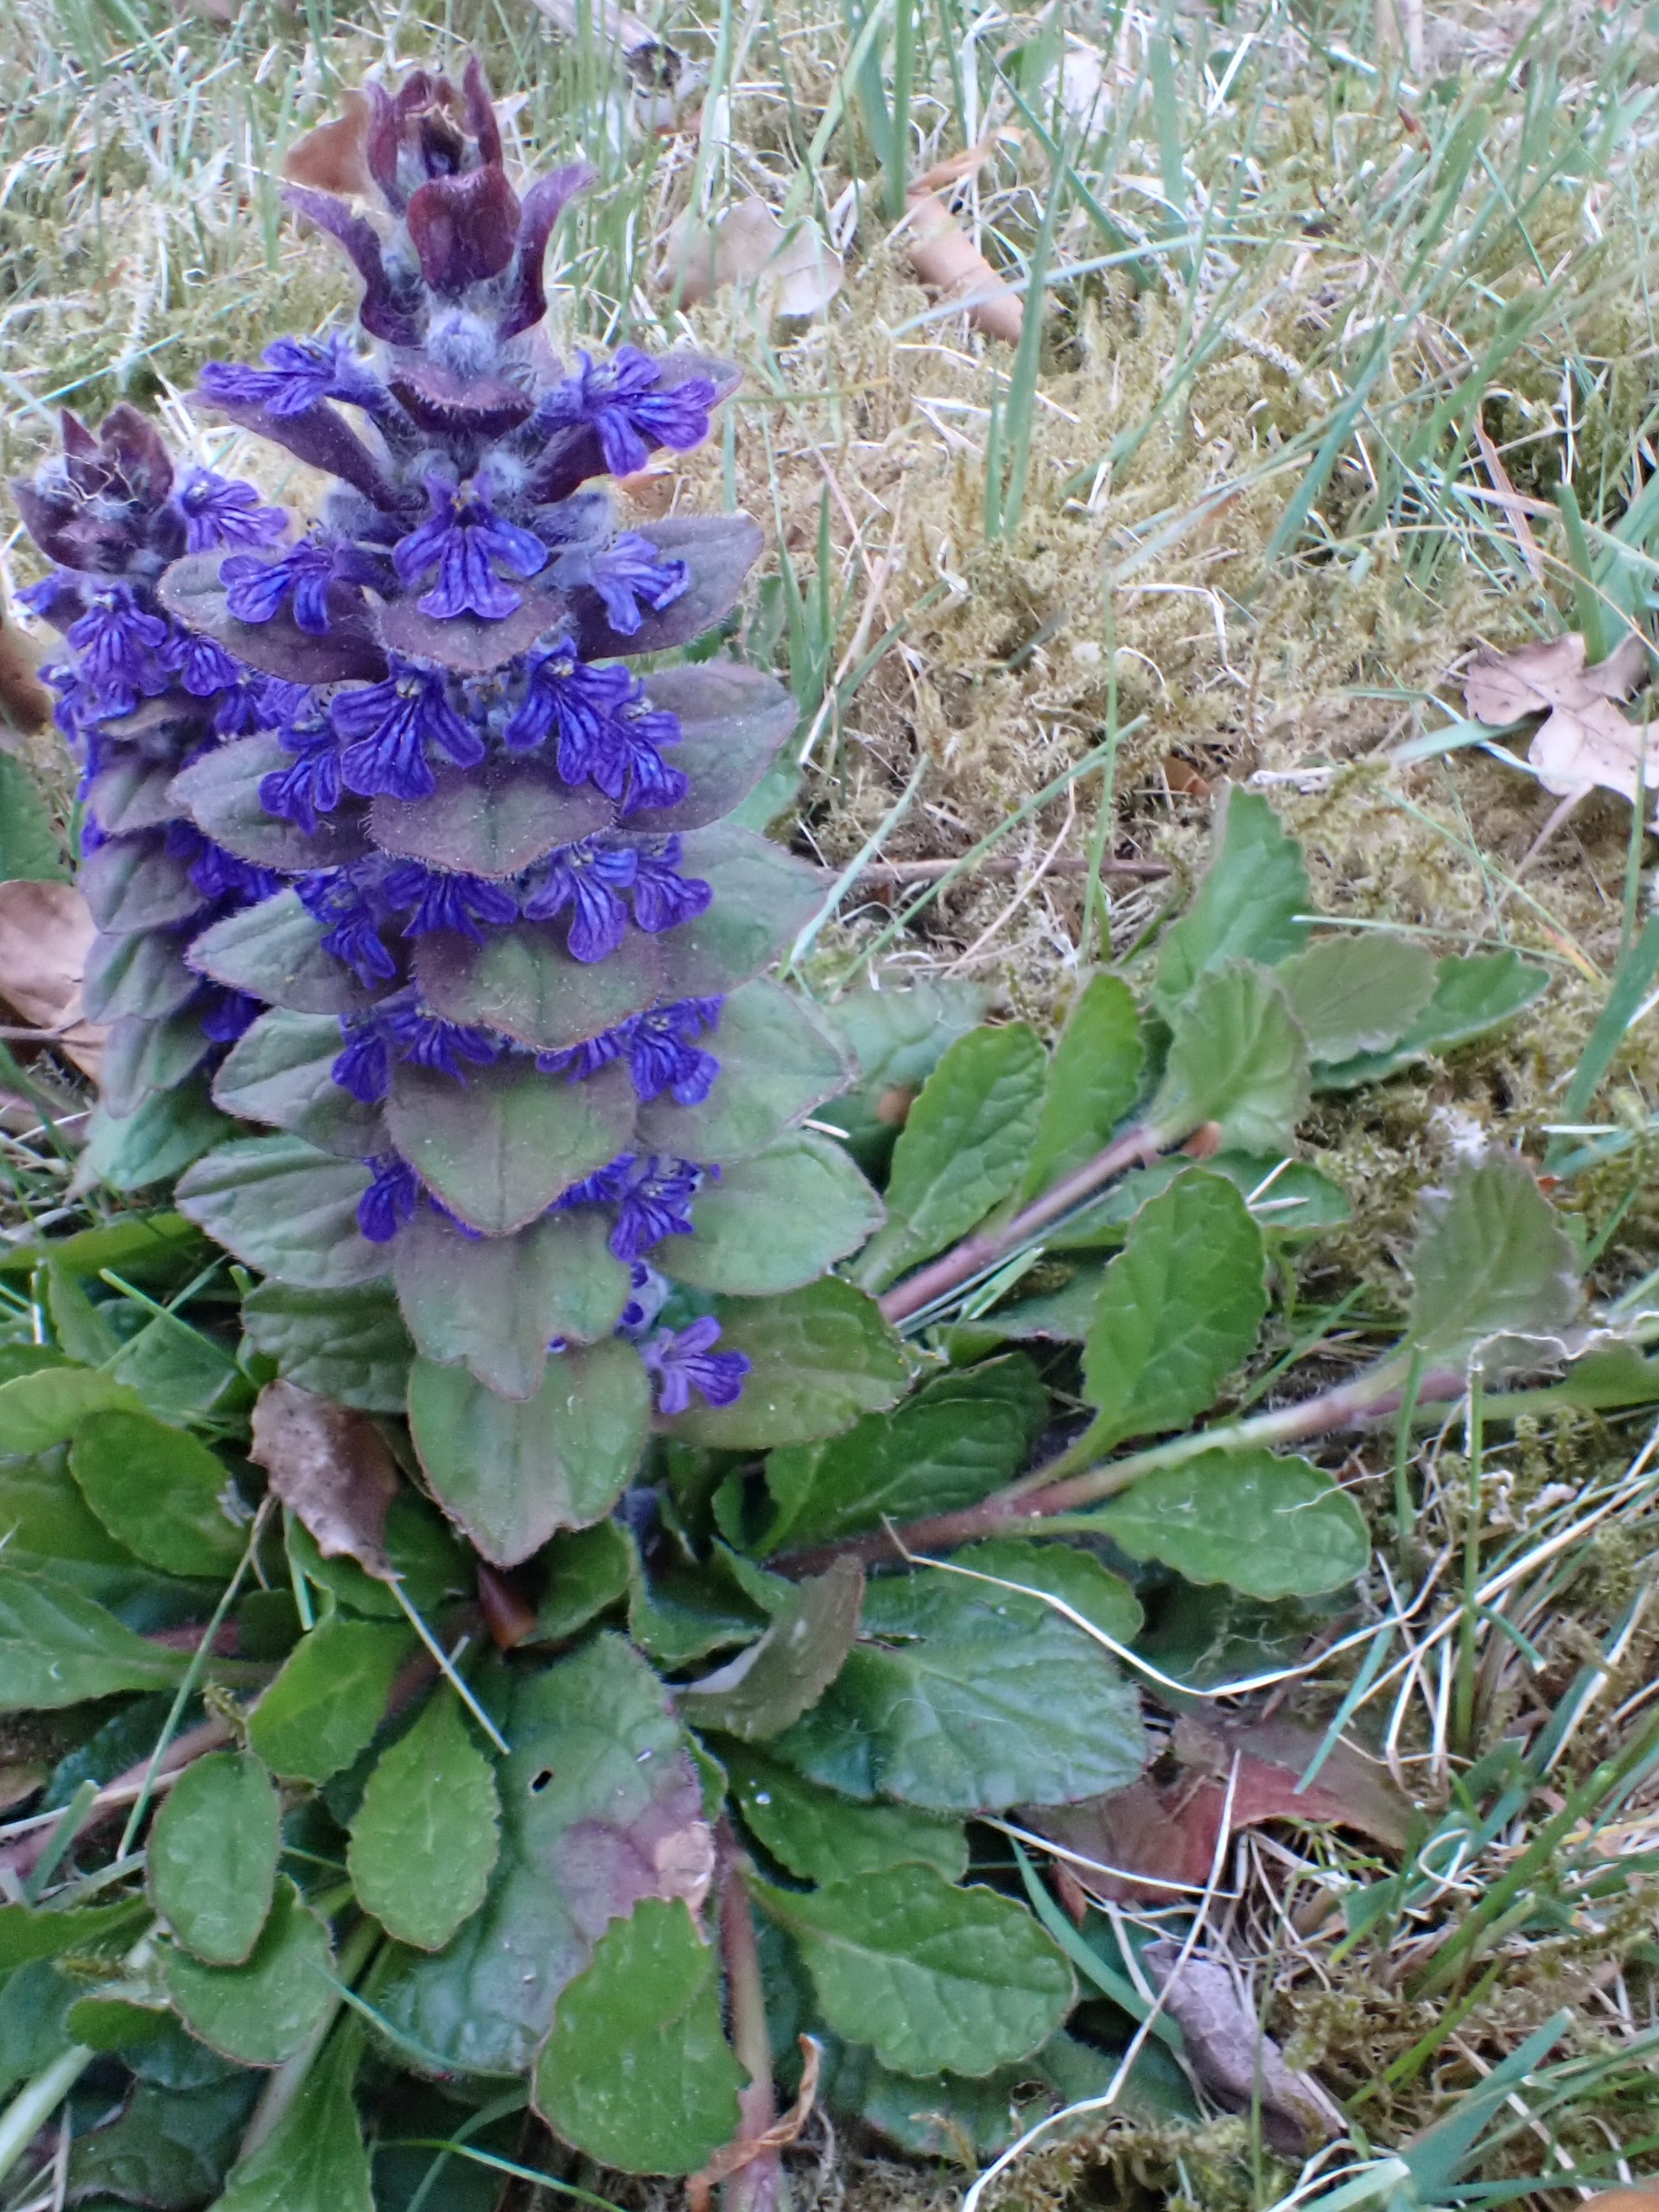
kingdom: Plantae
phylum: Tracheophyta
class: Magnoliopsida
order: Lamiales
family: Lamiaceae
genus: Ajuga
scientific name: Ajuga
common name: Pyramide-læbeløs × krybende læbeløs
